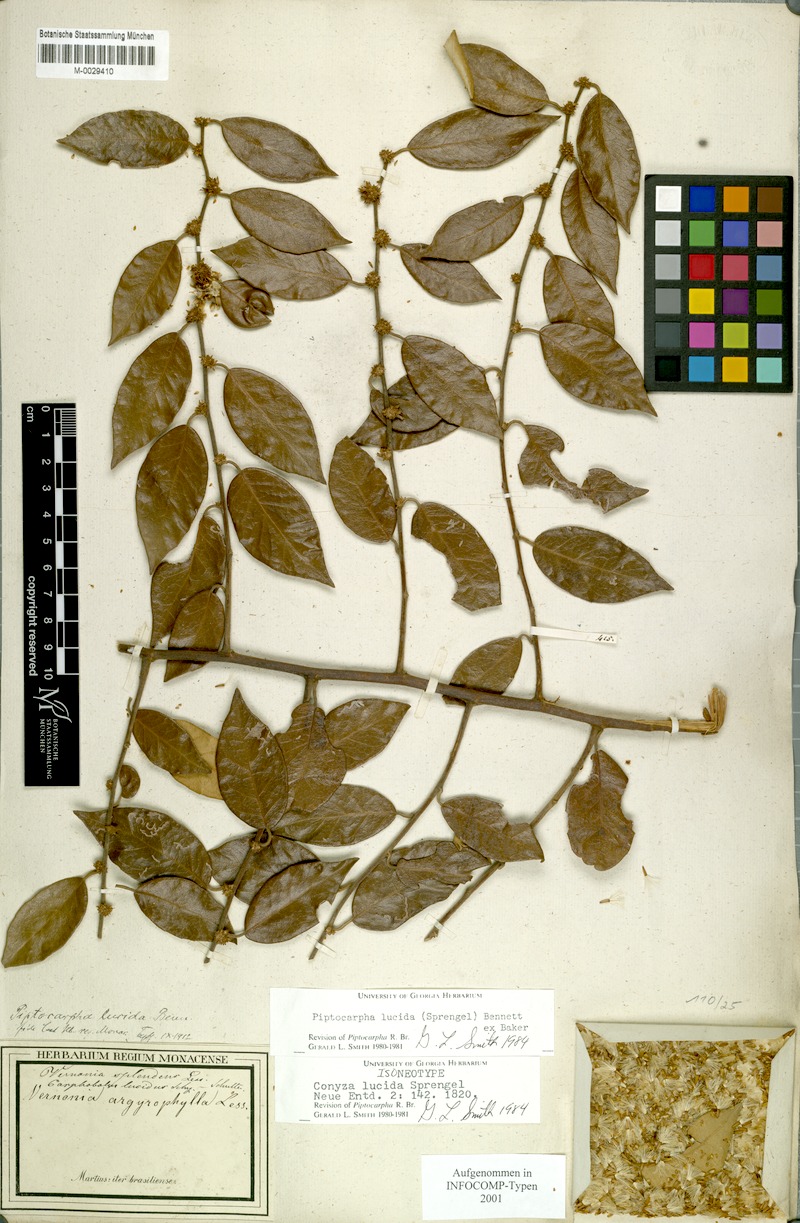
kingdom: Plantae
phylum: Tracheophyta
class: Magnoliopsida
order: Asterales
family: Asteraceae
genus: Piptocarpha
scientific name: Piptocarpha lucida
